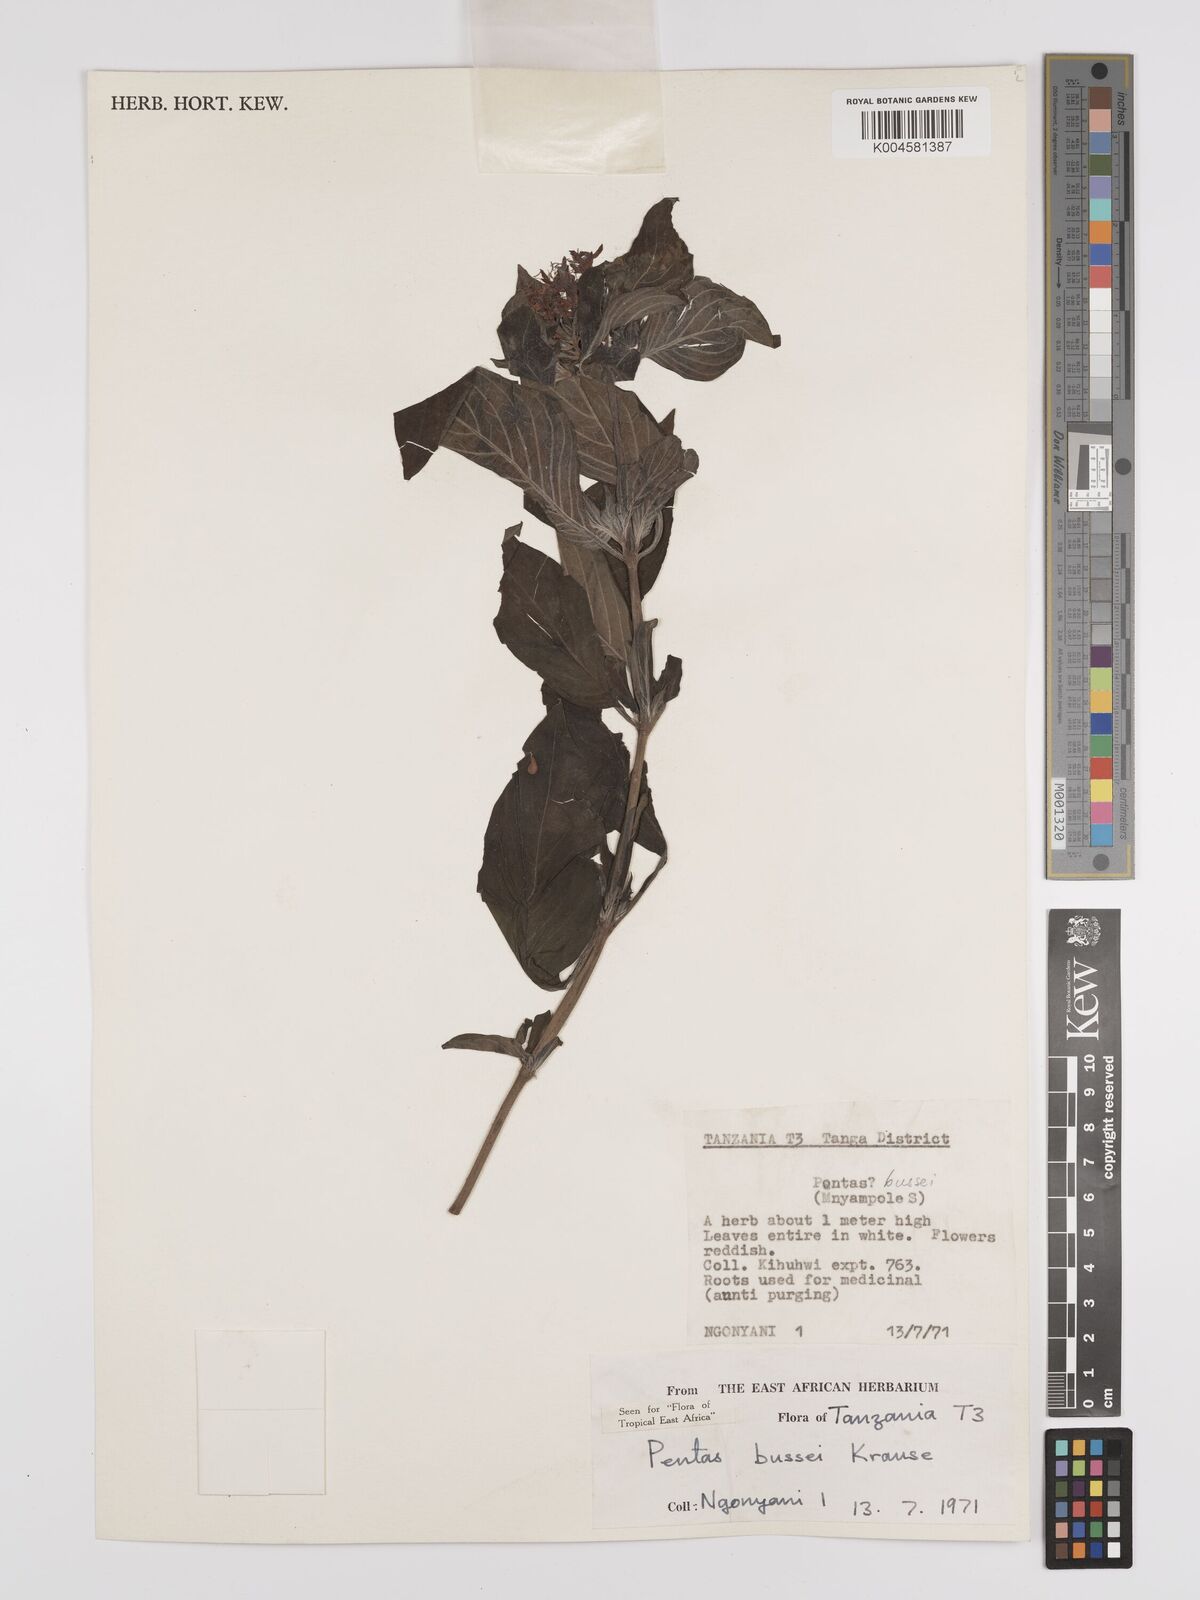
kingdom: Plantae
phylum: Tracheophyta
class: Magnoliopsida
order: Gentianales
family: Rubiaceae
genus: Rhodopentas
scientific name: Rhodopentas bussei
